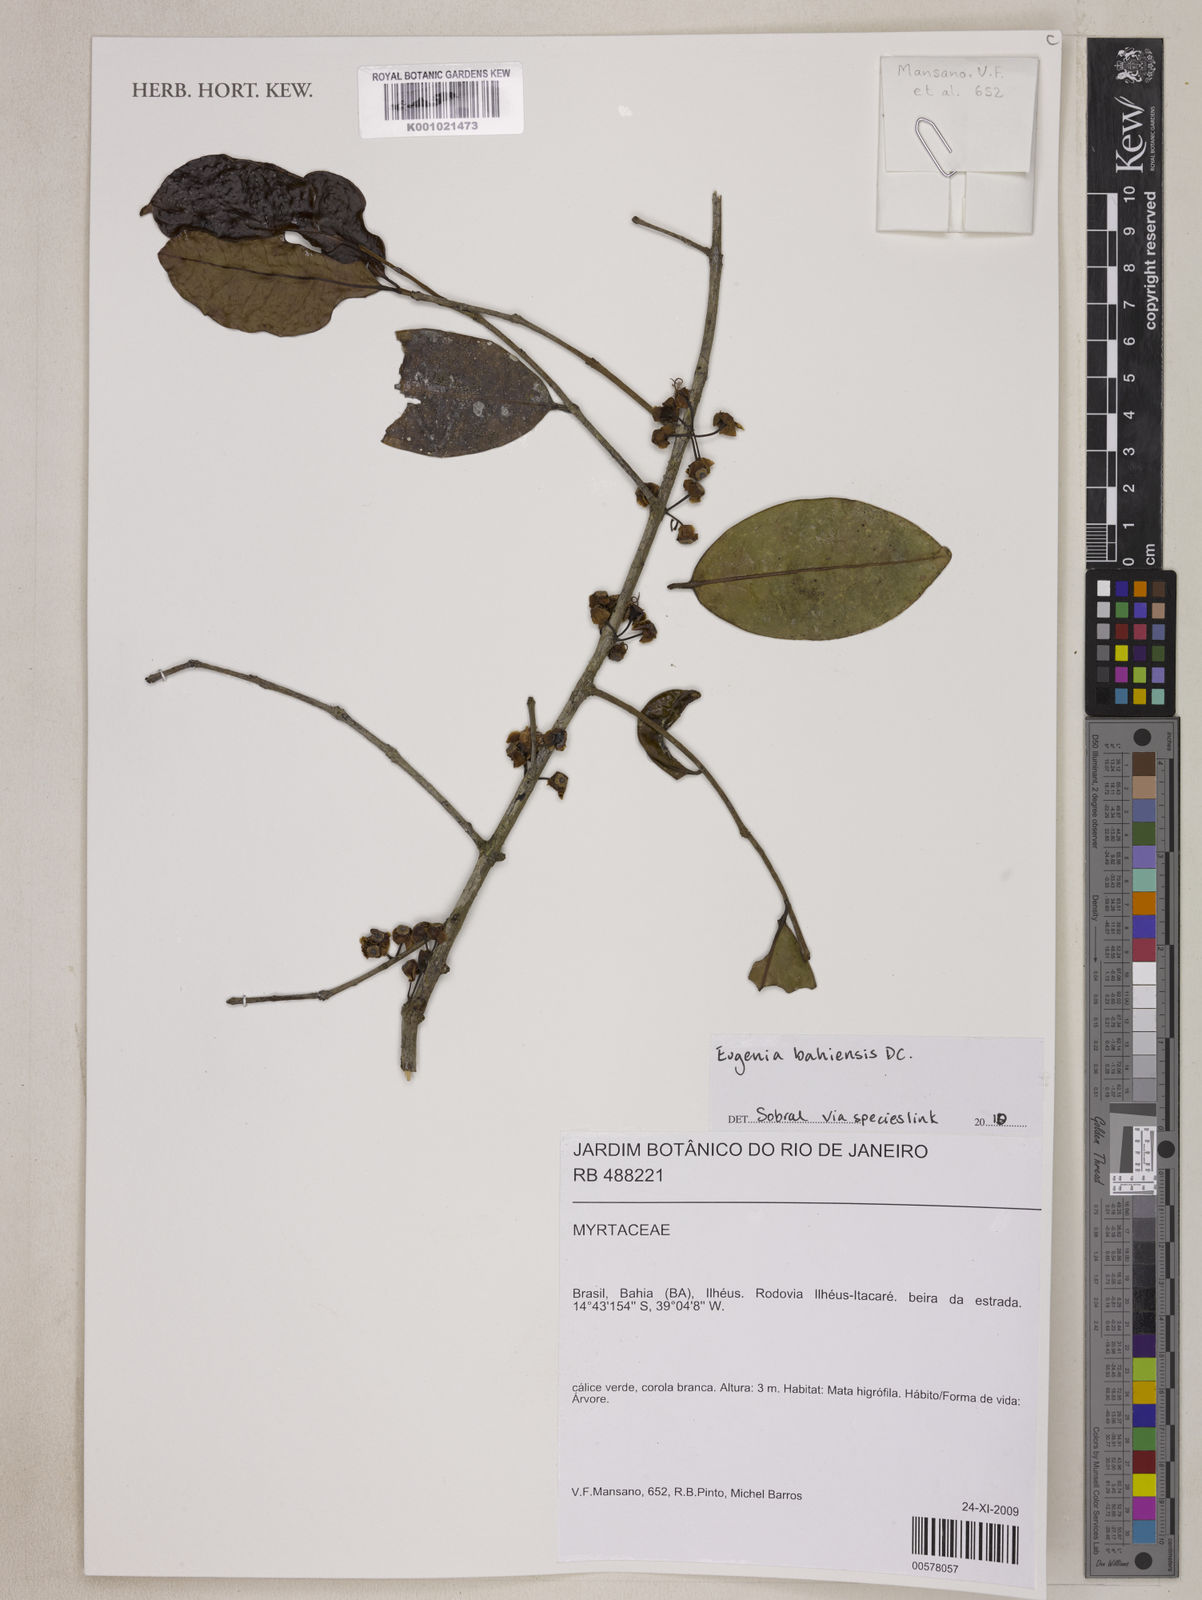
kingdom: Plantae
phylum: Tracheophyta
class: Magnoliopsida
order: Myrtales
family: Myrtaceae
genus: Eugenia
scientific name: Eugenia bahiensis
